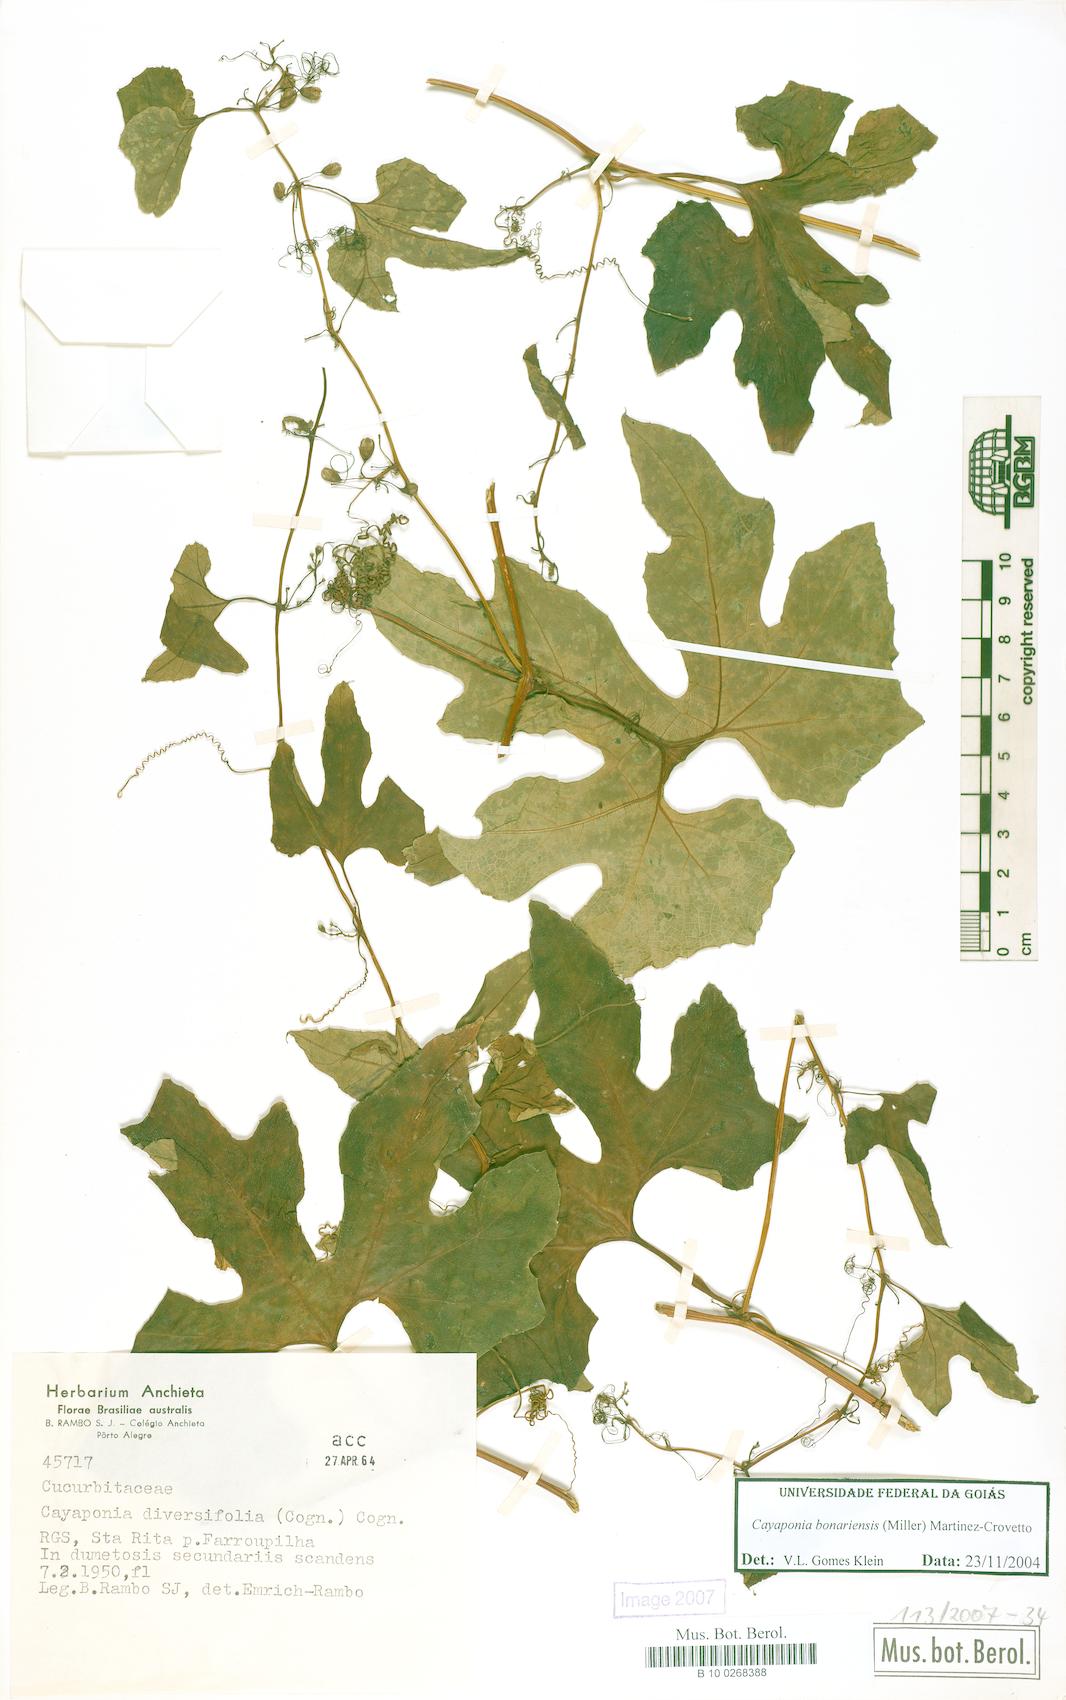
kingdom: Plantae
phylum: Tracheophyta
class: Magnoliopsida
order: Cucurbitales
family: Cucurbitaceae
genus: Cayaponia
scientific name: Cayaponia bonariensis
